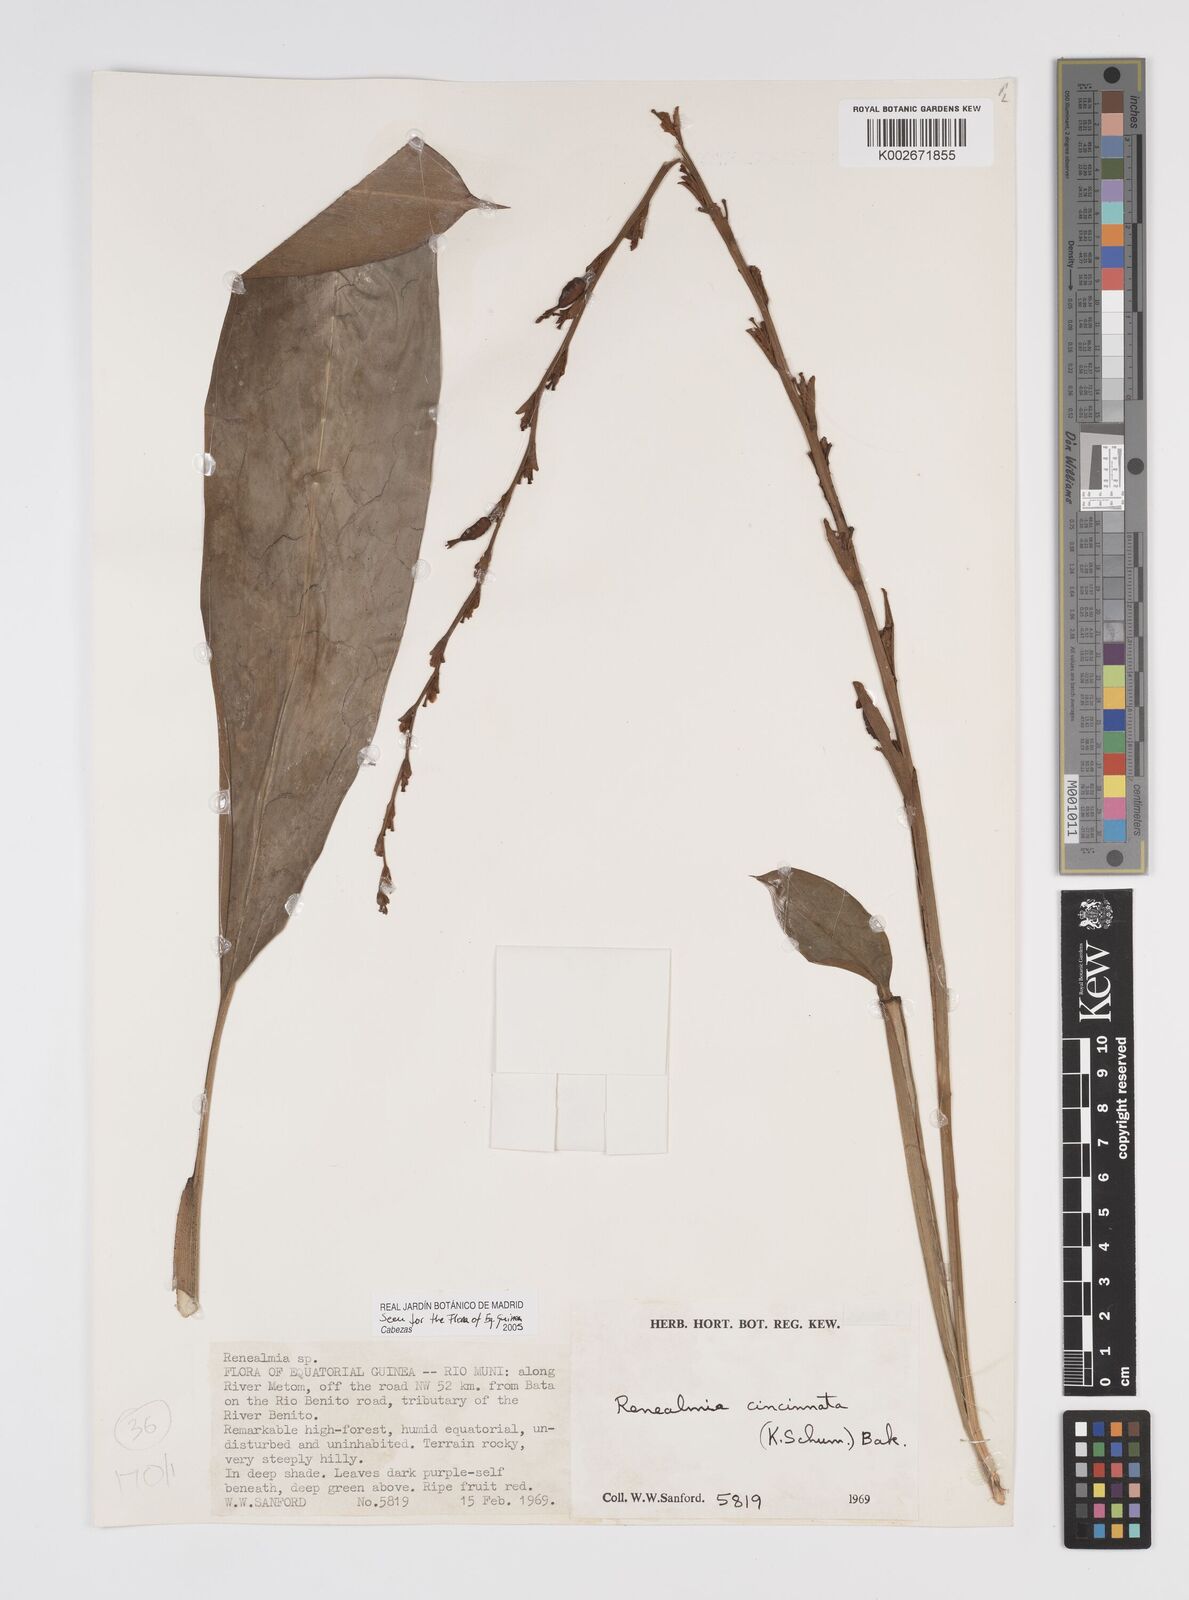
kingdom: Plantae
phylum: Tracheophyta
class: Liliopsida
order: Zingiberales
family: Zingiberaceae
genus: Renealmia
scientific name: Renealmia cincinnata
